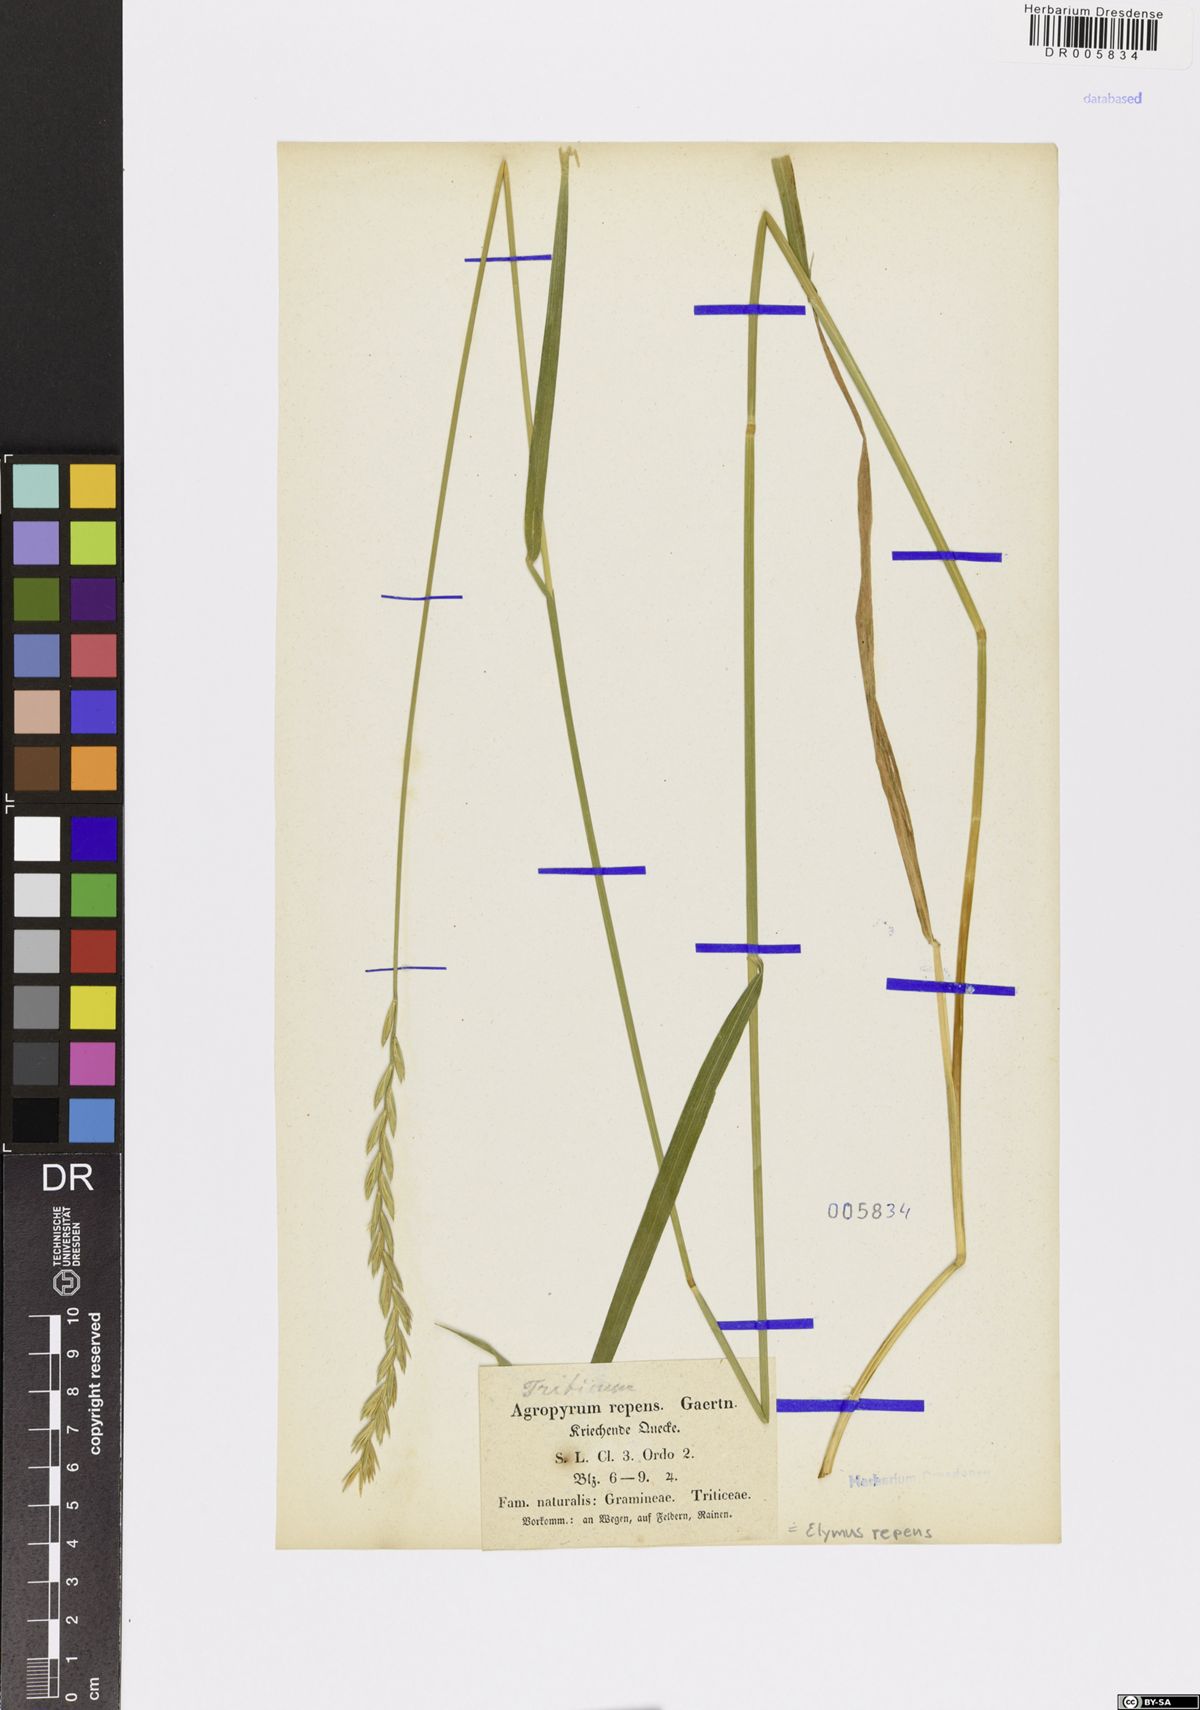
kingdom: Plantae
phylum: Tracheophyta
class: Liliopsida
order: Poales
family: Poaceae
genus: Elymus
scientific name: Elymus repens
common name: Quackgrass
